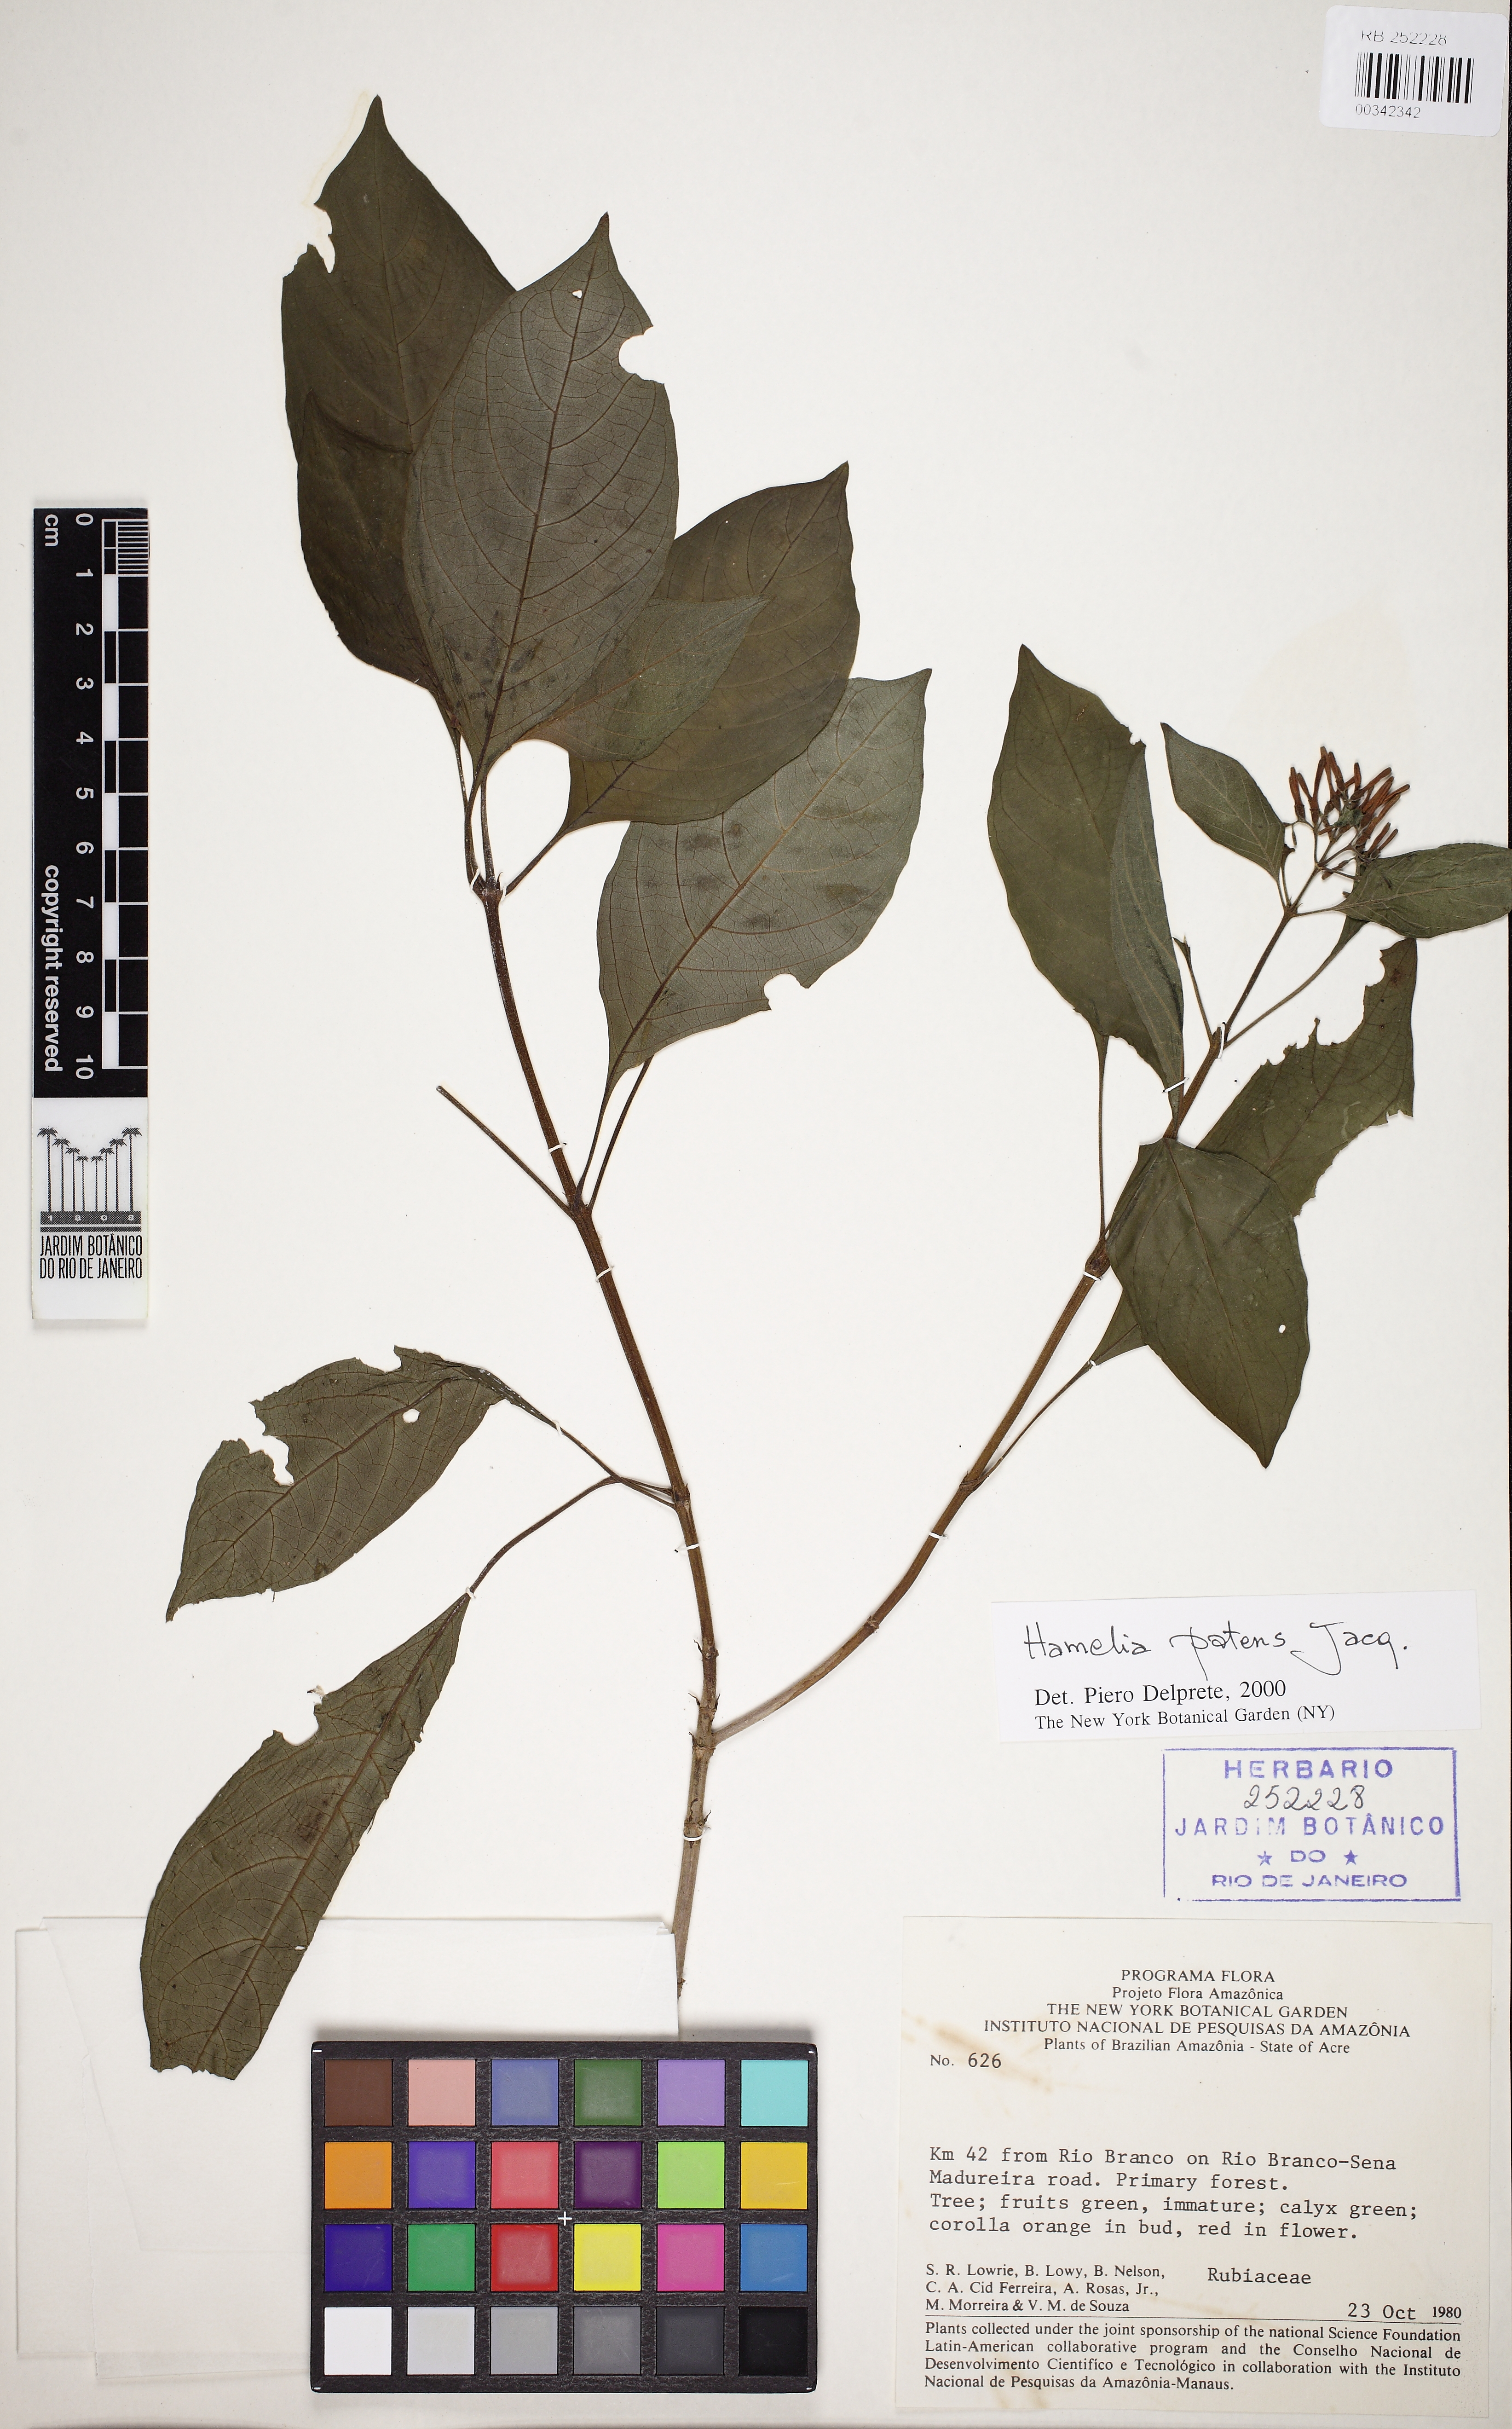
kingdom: Plantae
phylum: Tracheophyta
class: Magnoliopsida
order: Gentianales
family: Rubiaceae
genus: Hamelia
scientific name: Hamelia patens
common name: Redhead
